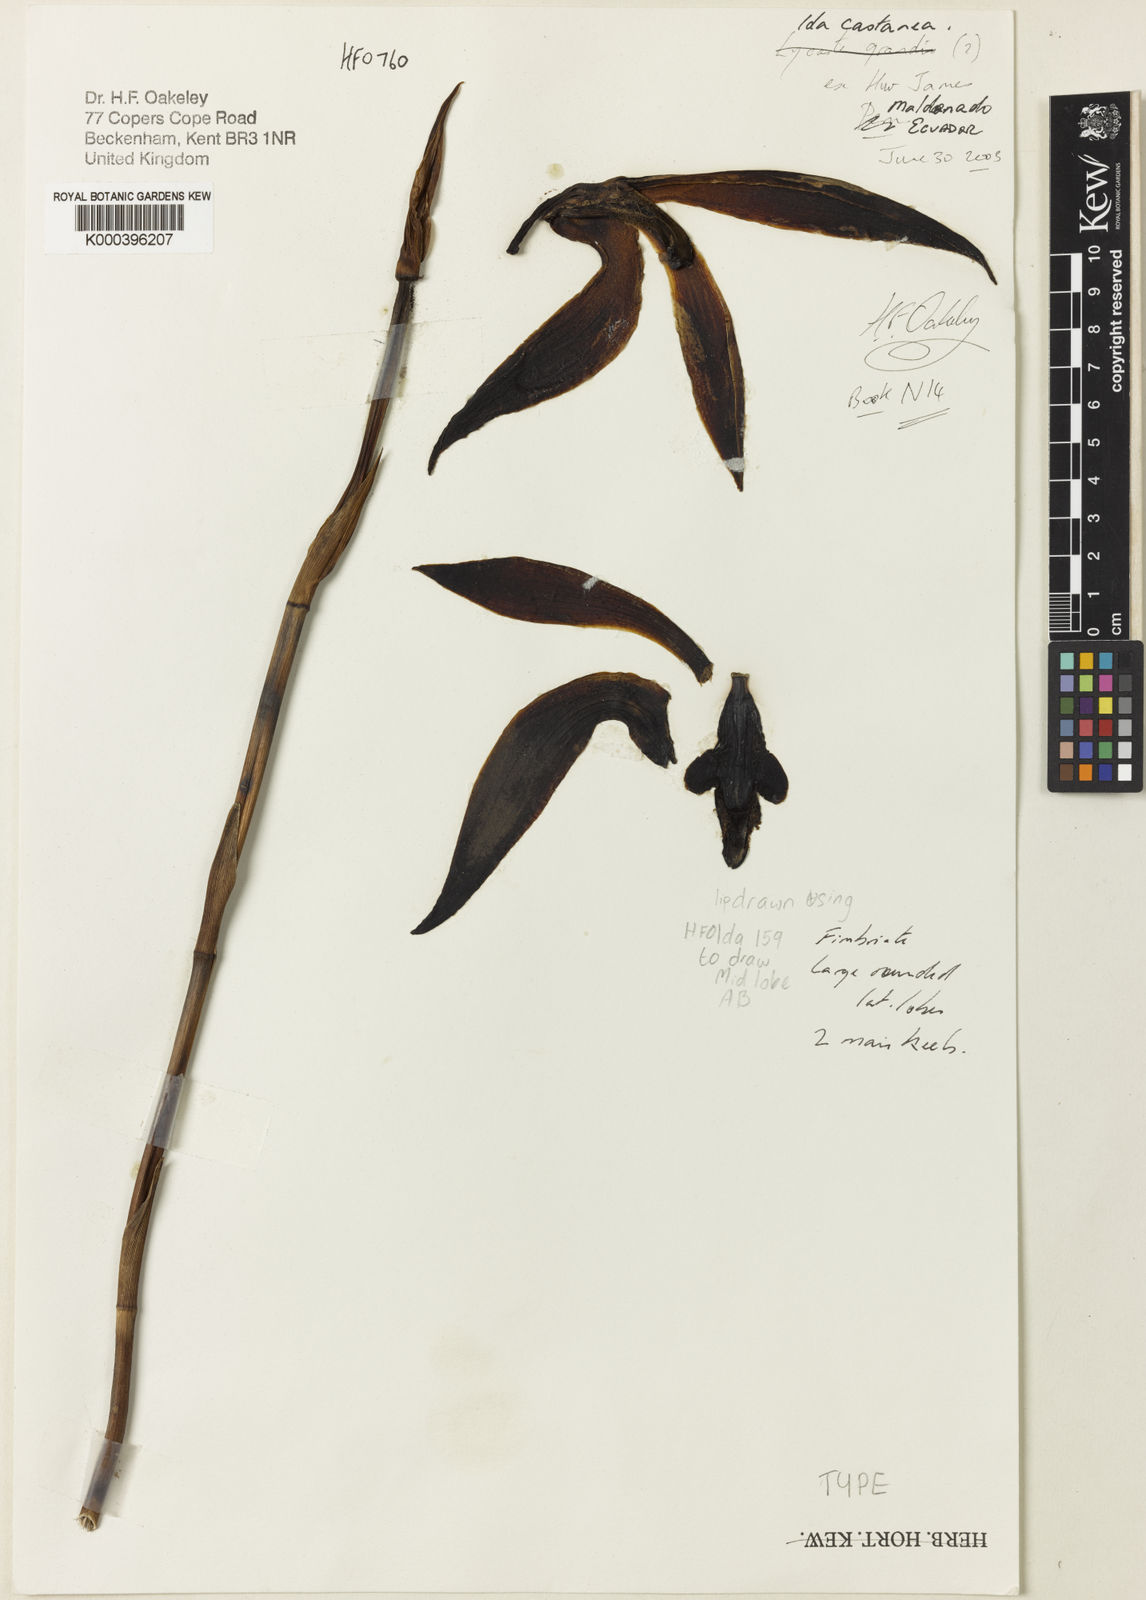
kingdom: Plantae
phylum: Tracheophyta
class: Liliopsida
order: Asparagales
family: Orchidaceae
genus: Ida
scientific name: Ida castanea
